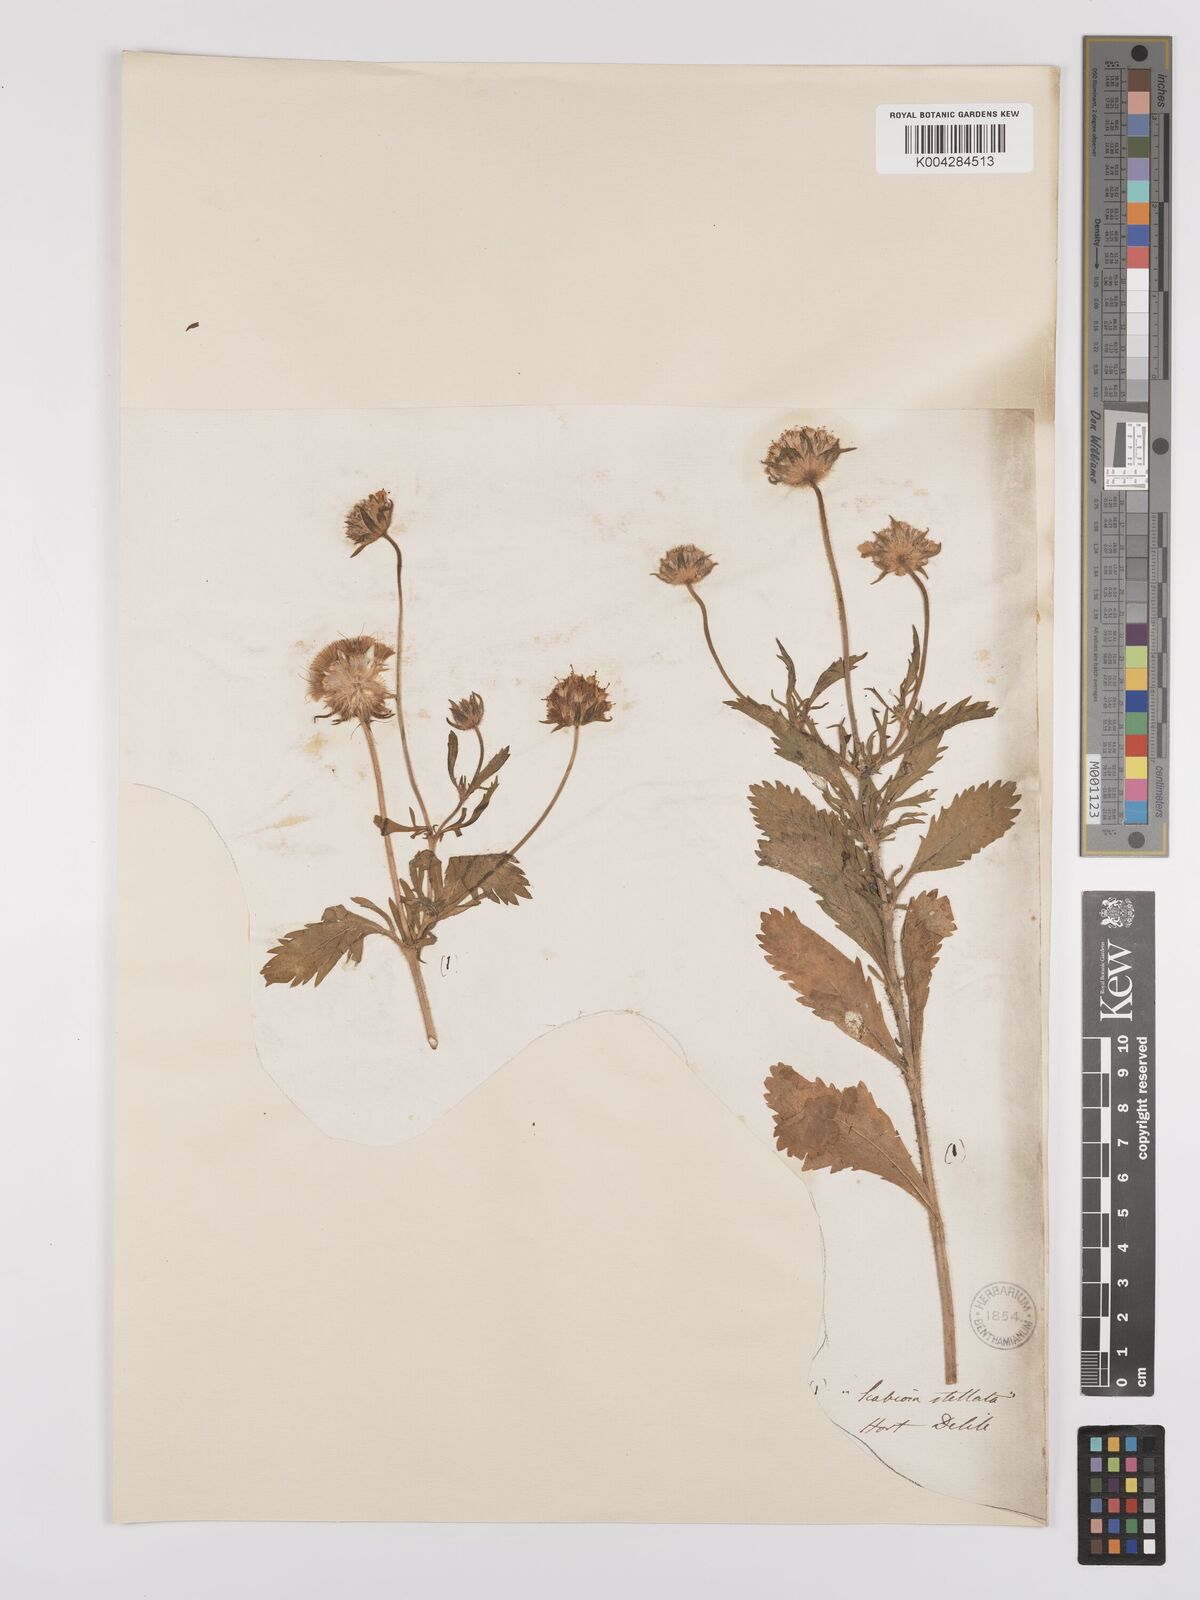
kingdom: Plantae
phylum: Tracheophyta
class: Magnoliopsida
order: Dipsacales
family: Caprifoliaceae
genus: Lomelosia
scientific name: Lomelosia stellata
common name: Teasel
